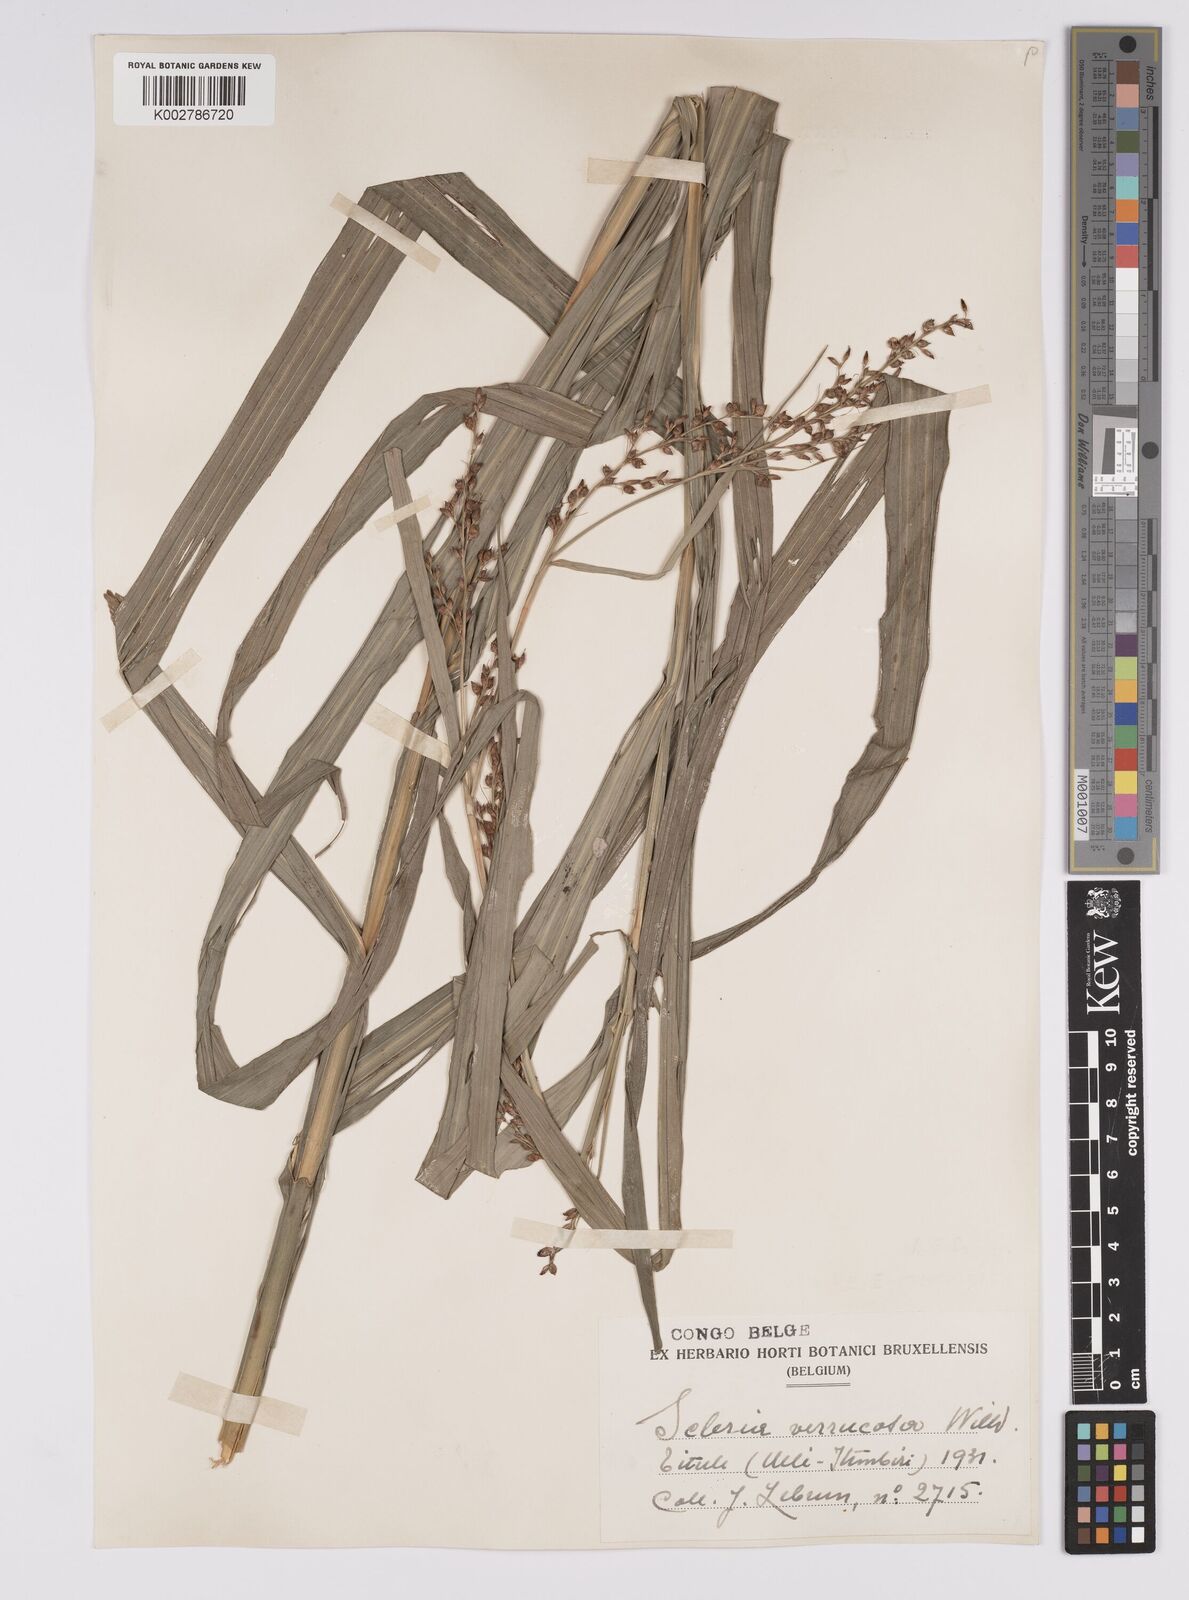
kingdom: Plantae
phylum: Tracheophyta
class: Liliopsida
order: Poales
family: Cyperaceae
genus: Scleria
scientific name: Scleria verrucosa
